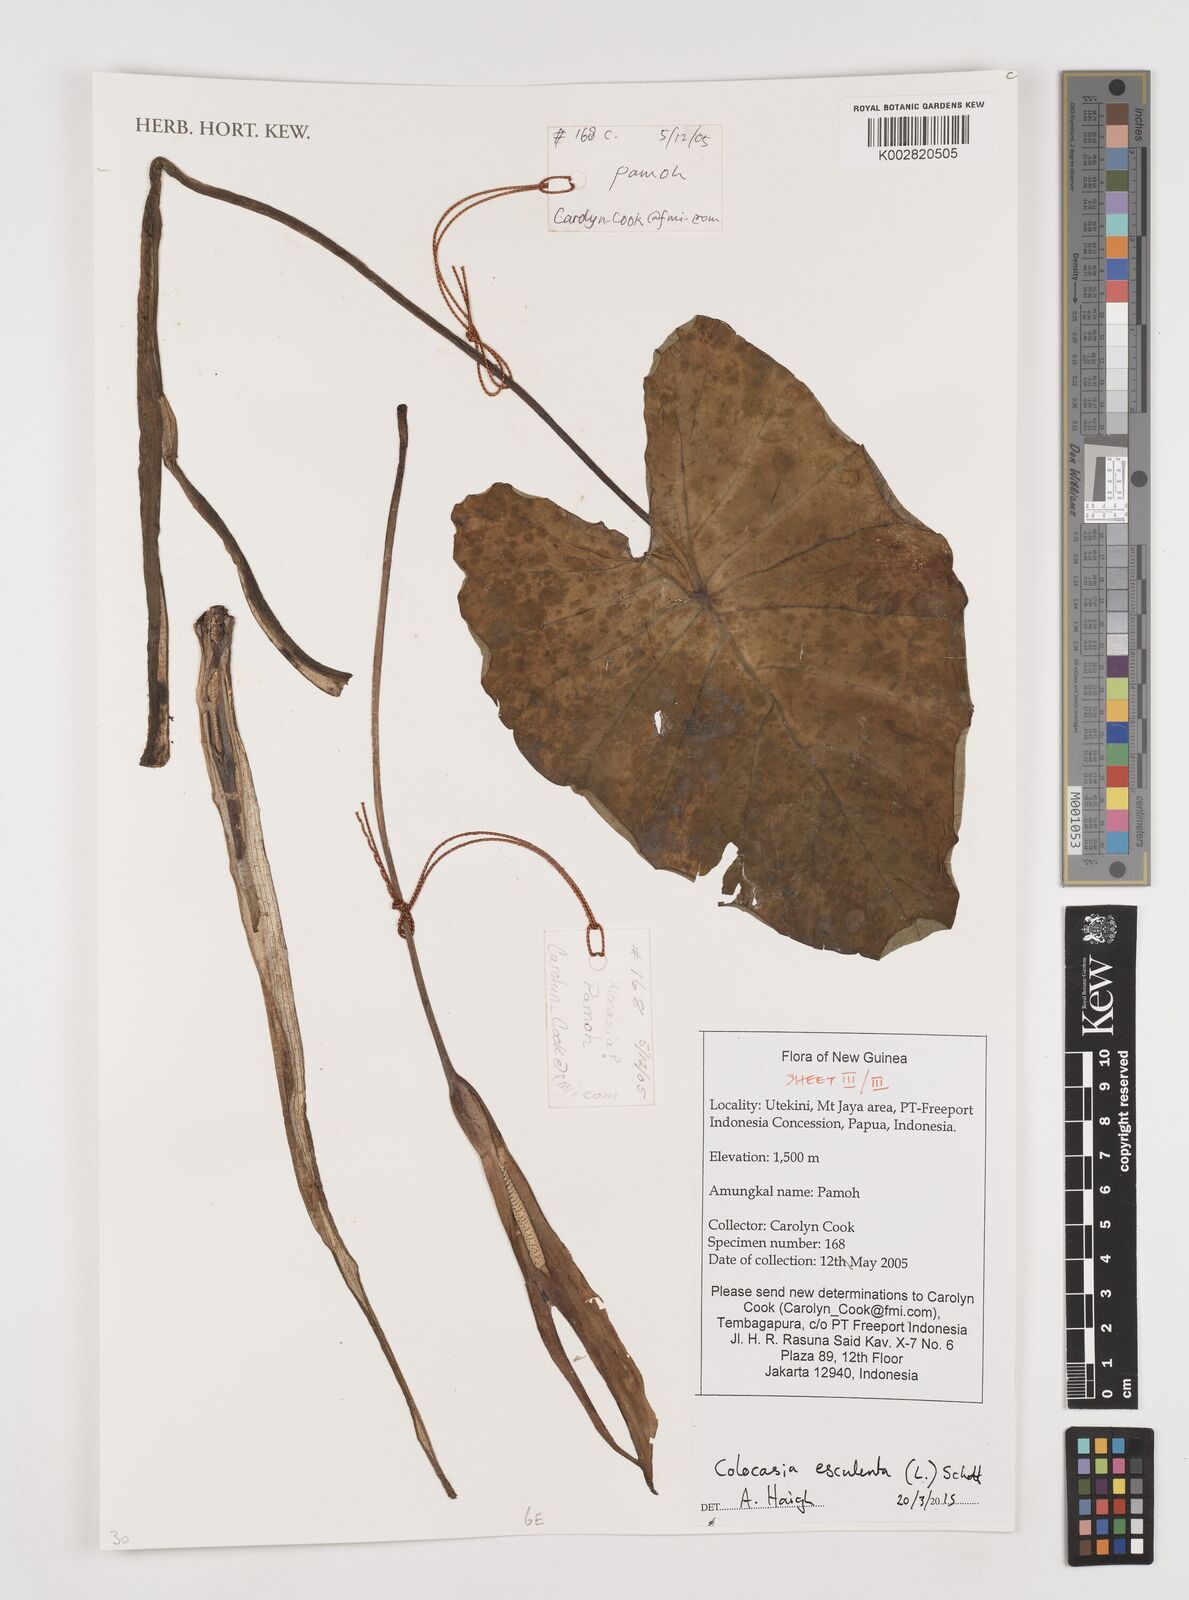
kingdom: Plantae
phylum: Tracheophyta
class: Liliopsida
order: Alismatales
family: Araceae
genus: Colocasia
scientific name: Colocasia esculenta
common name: Taro
